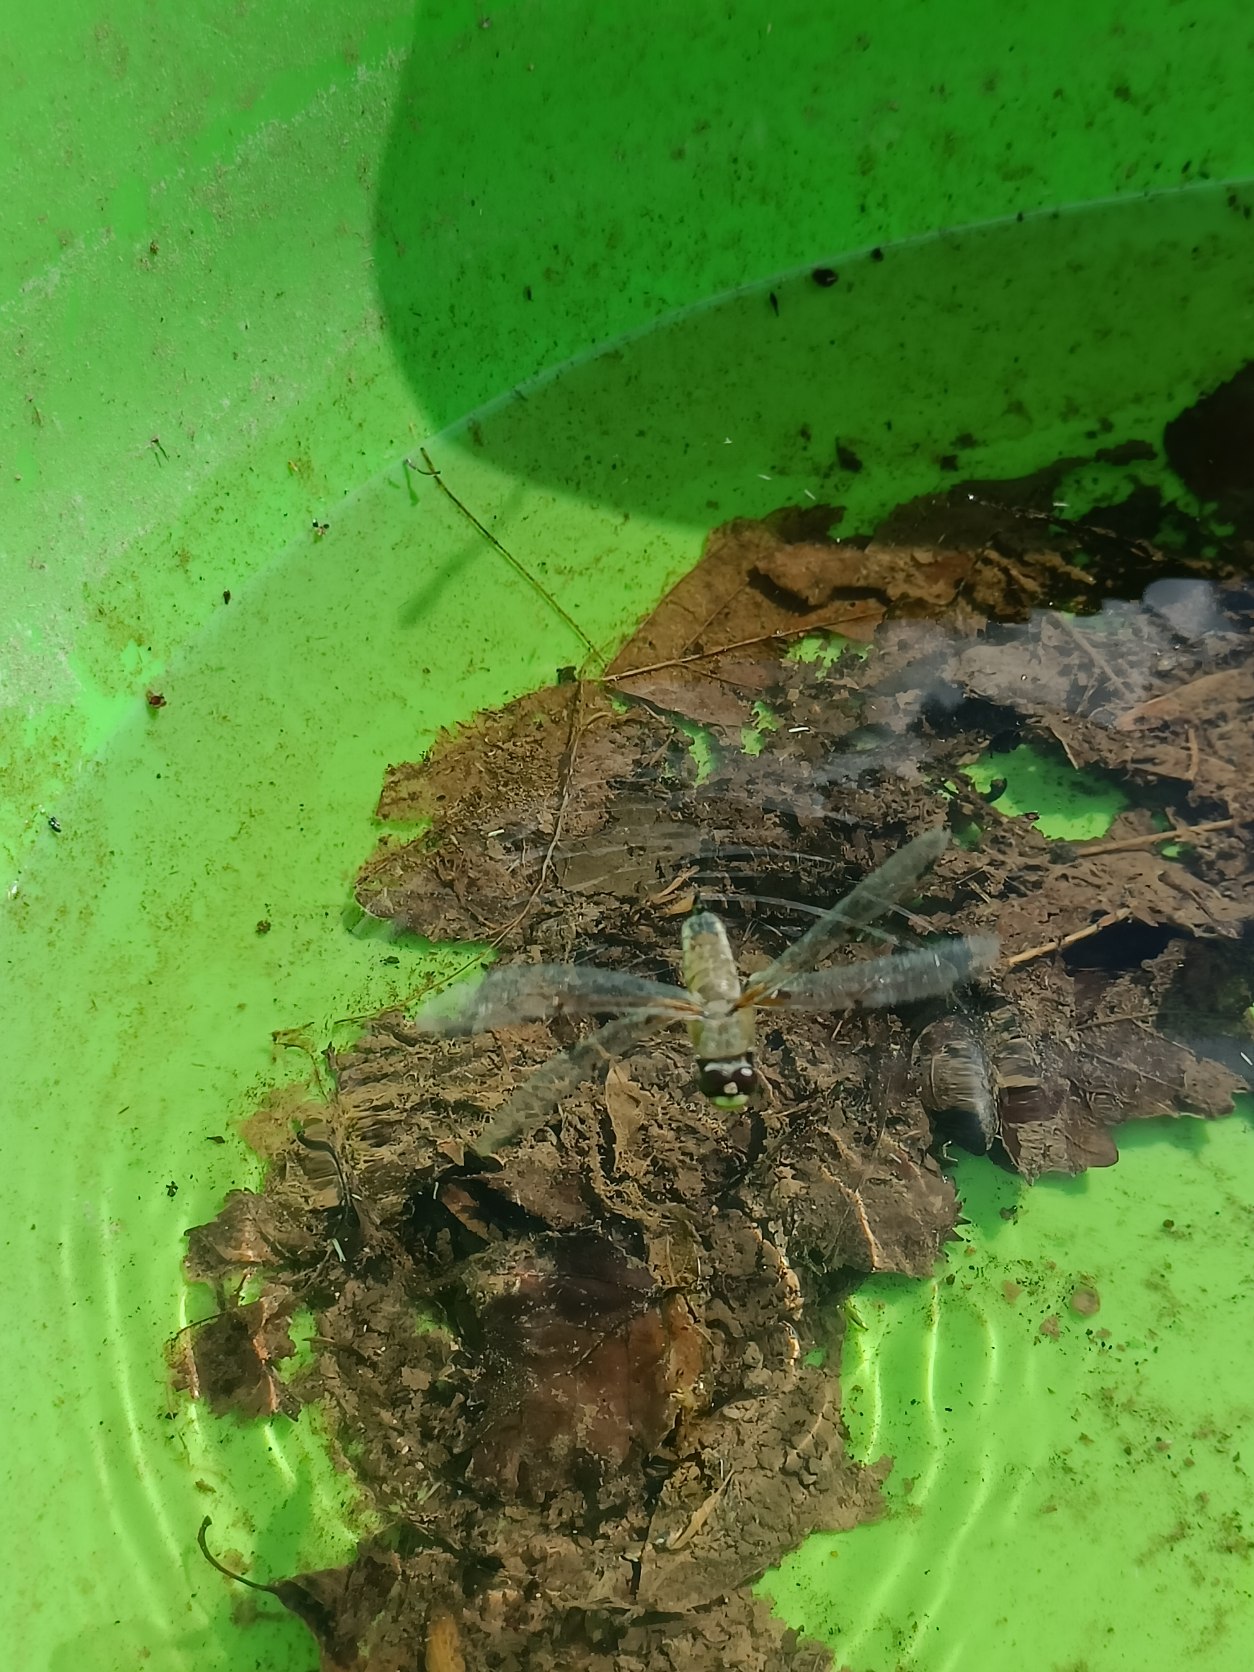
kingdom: Animalia
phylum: Arthropoda
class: Insecta
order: Odonata
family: Libellulidae
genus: Libellula
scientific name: Libellula quadrimaculata
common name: Fireplettet libel
